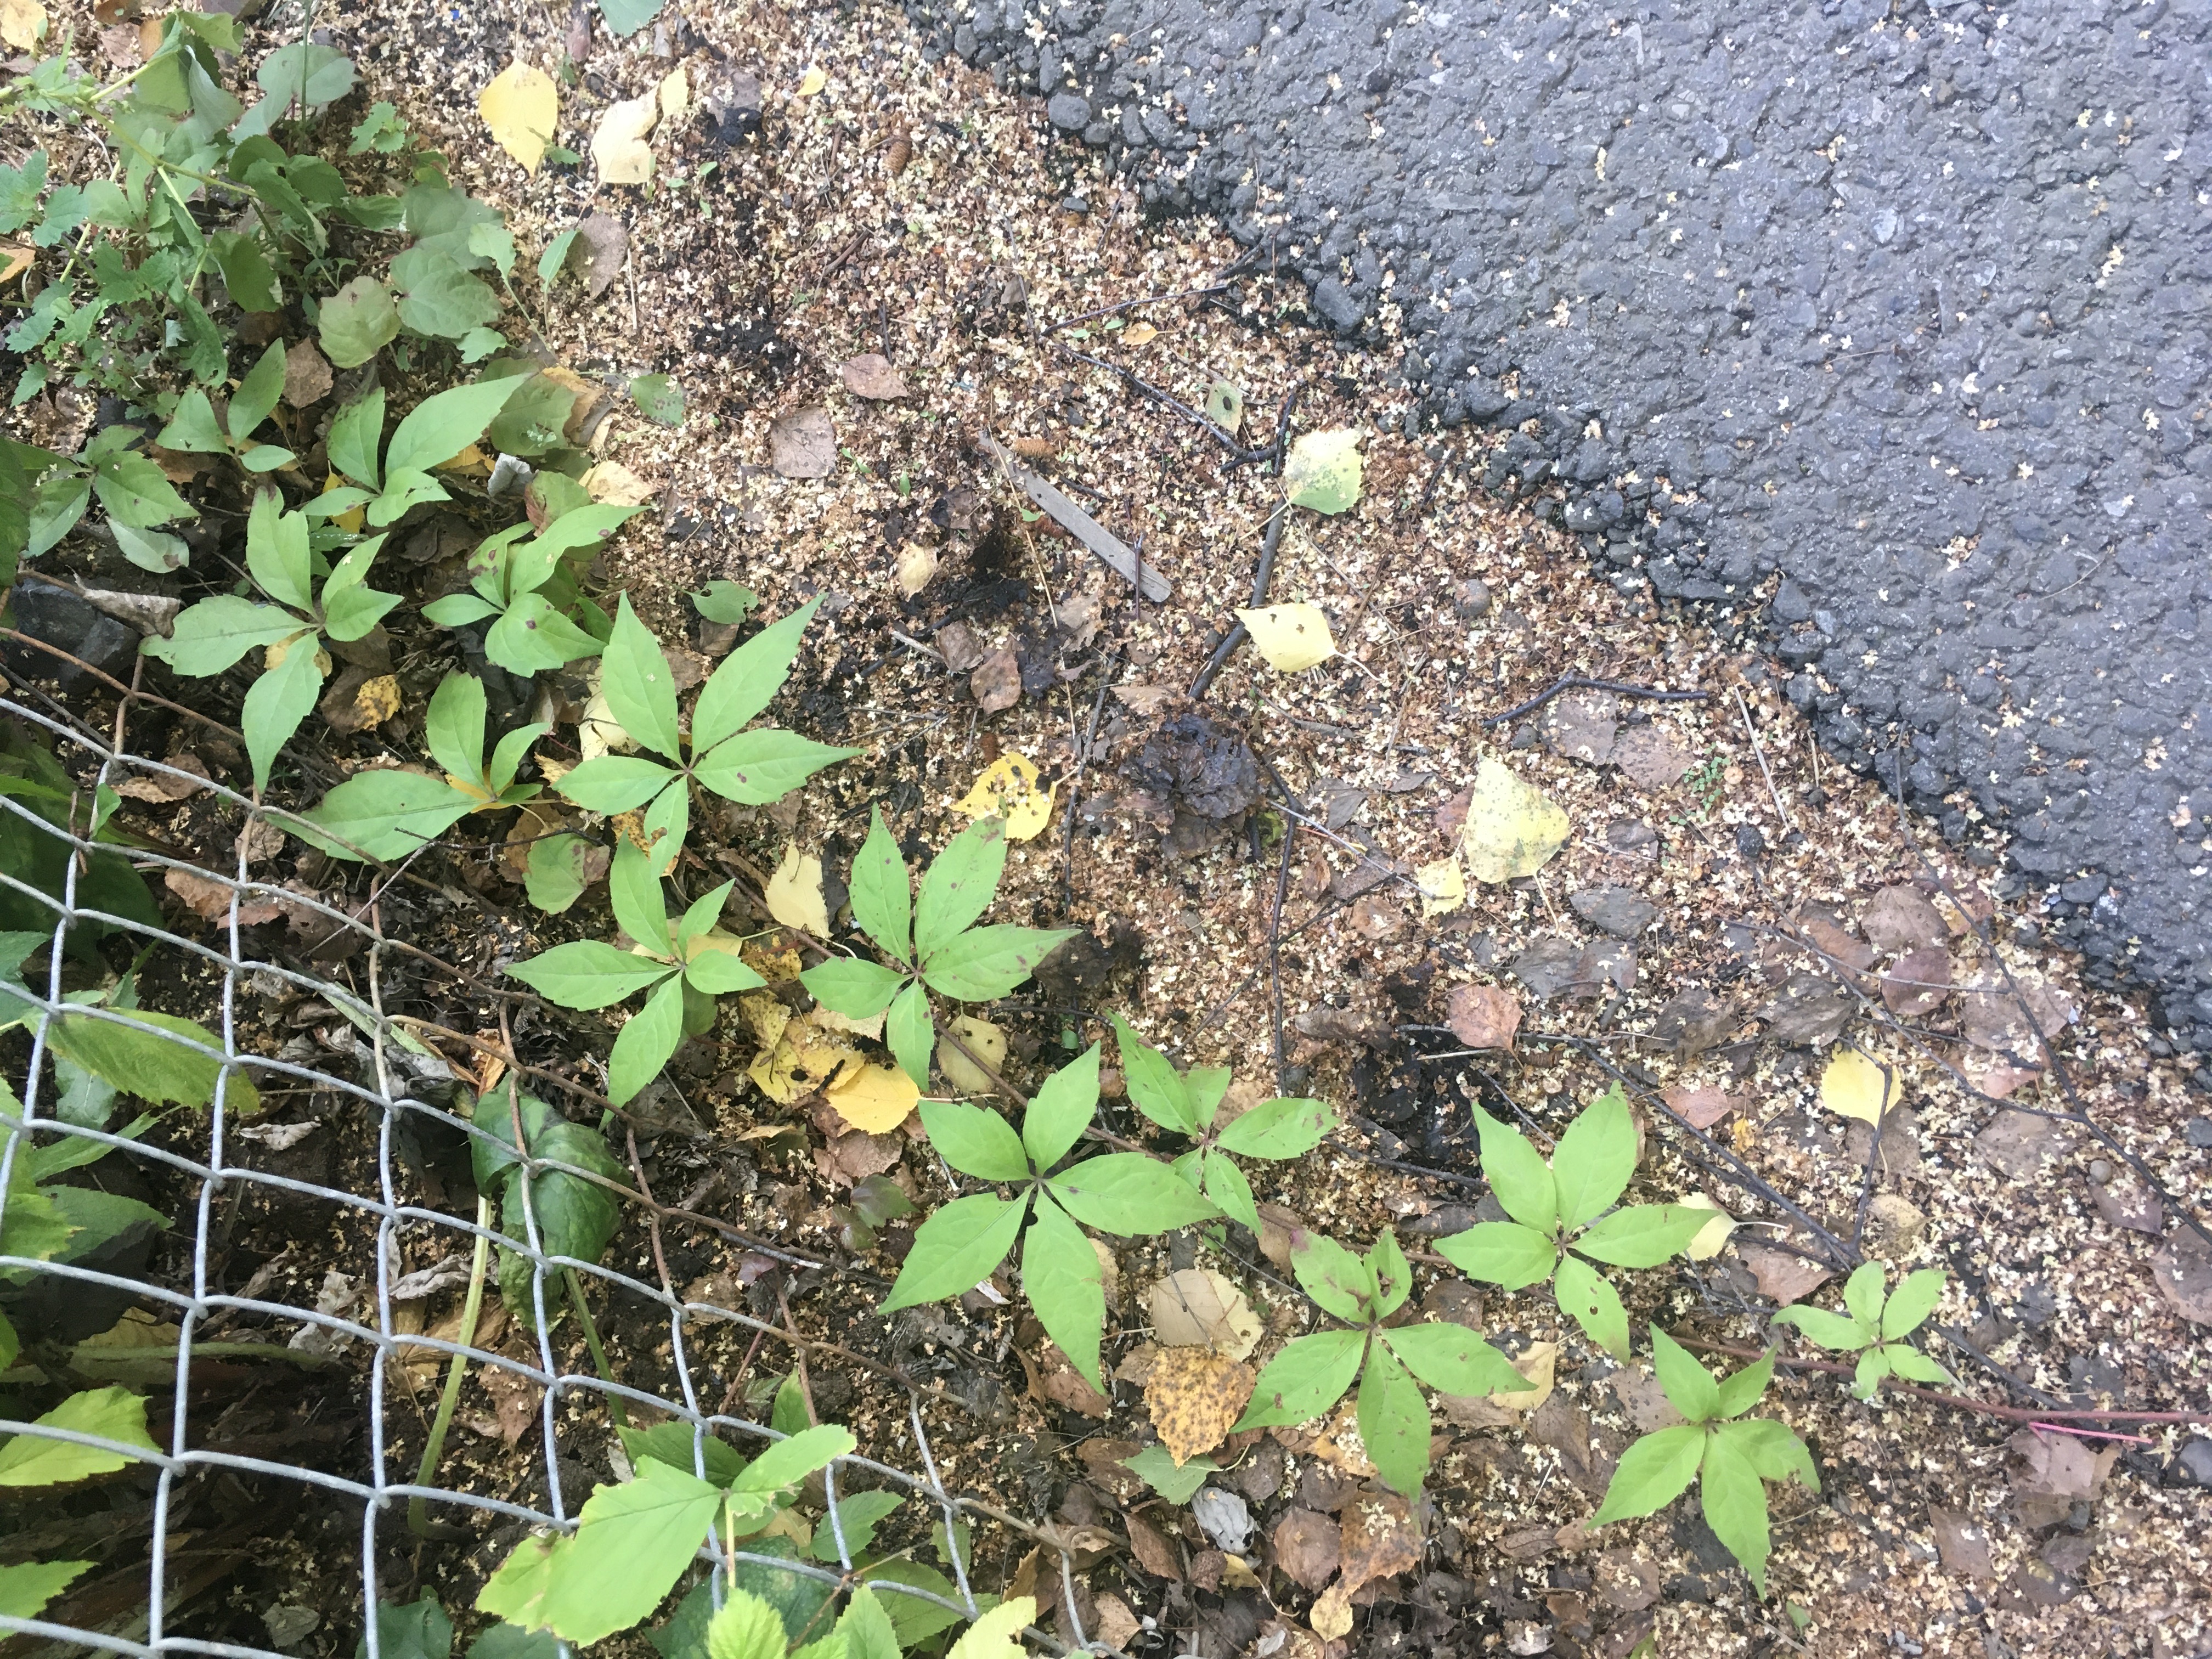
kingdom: Plantae
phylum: Tracheophyta
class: Magnoliopsida
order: Vitales
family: Vitaceae
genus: Parthenocissus
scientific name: Parthenocissus quinquefolia
